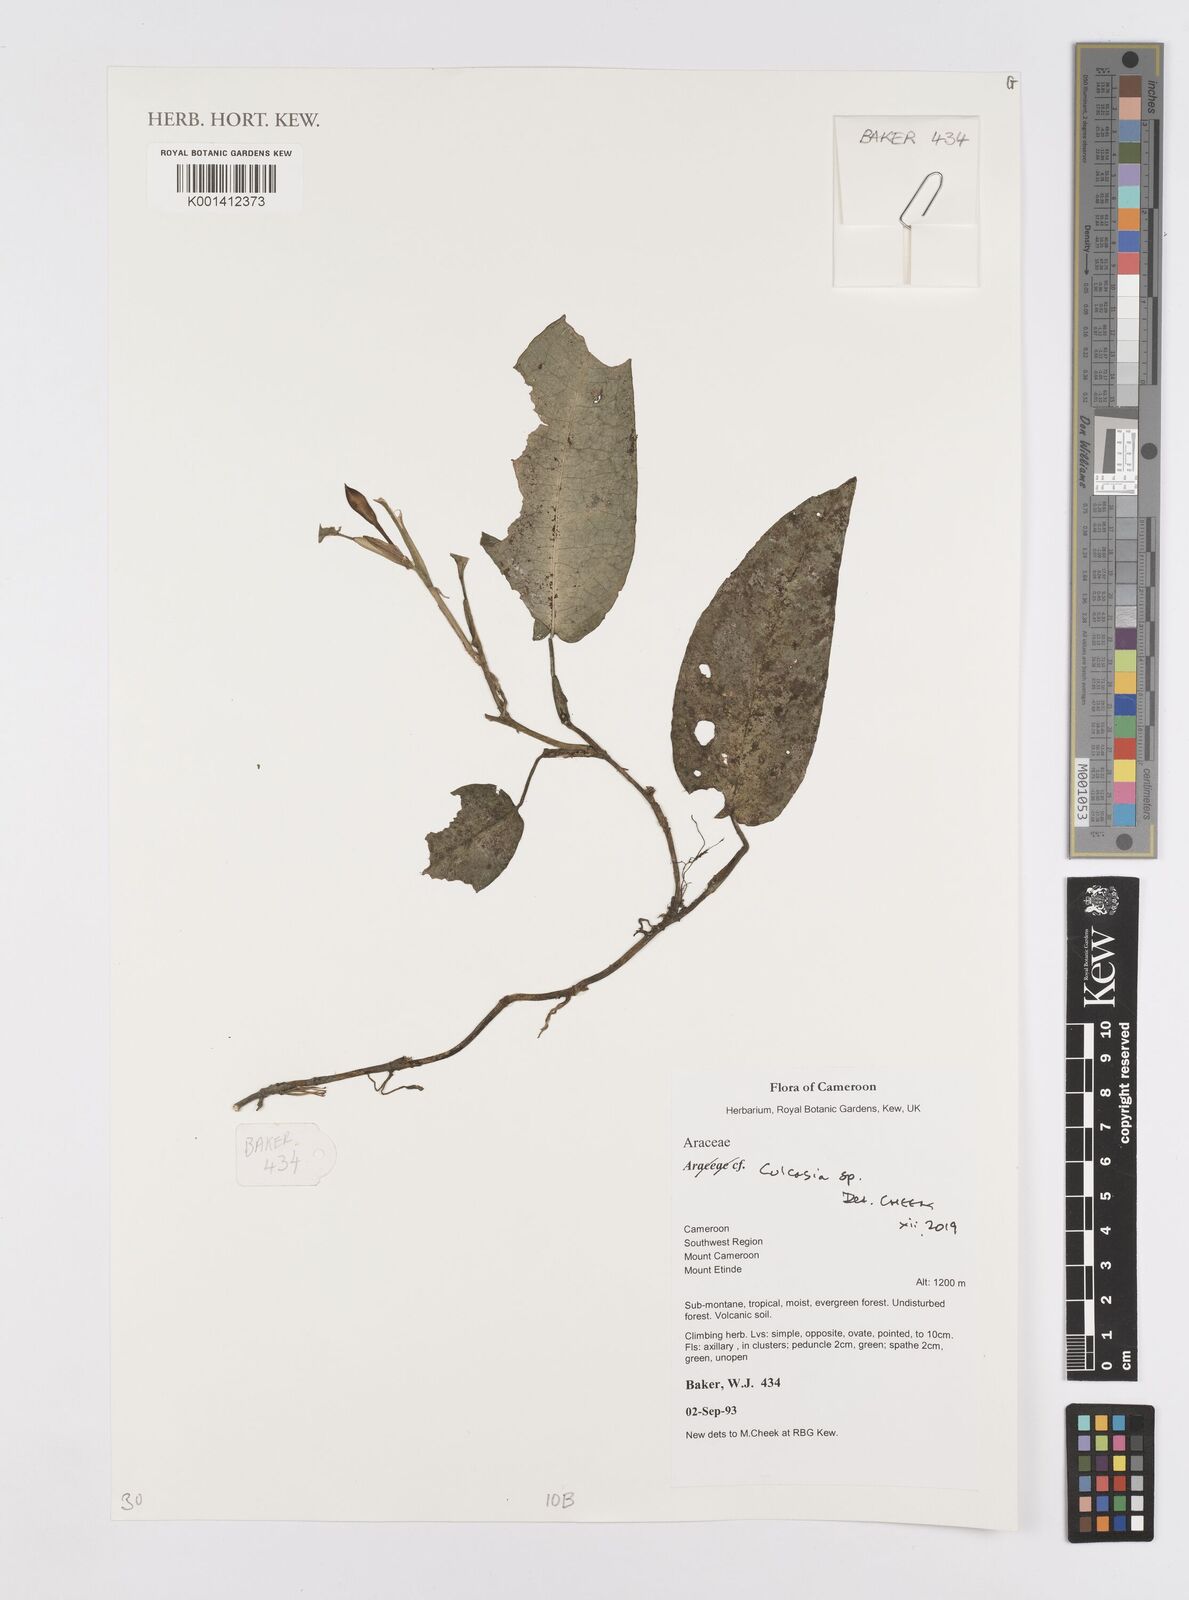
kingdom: Plantae
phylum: Tracheophyta
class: Liliopsida
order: Alismatales
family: Araceae
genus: Culcasia
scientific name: Culcasia parviflora
